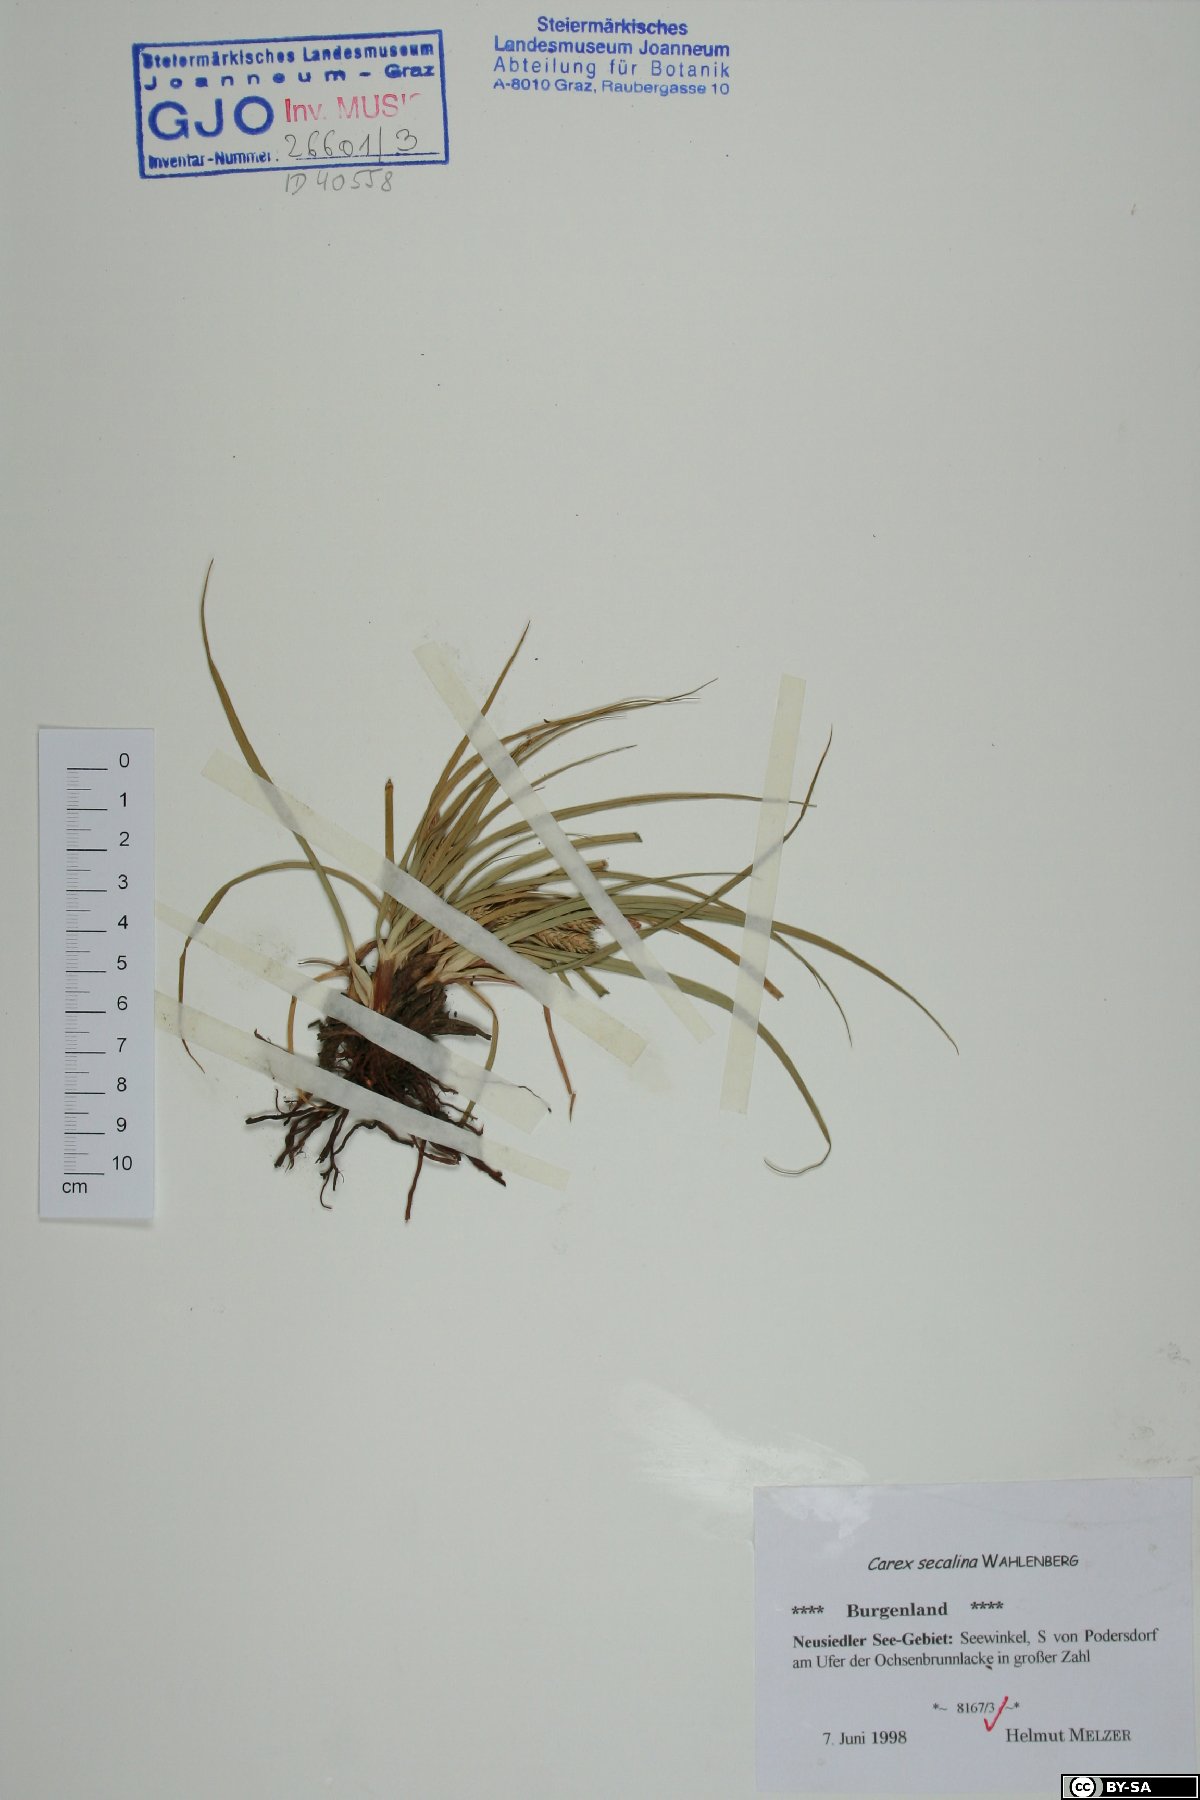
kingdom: Plantae
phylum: Tracheophyta
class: Liliopsida
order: Poales
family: Cyperaceae
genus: Carex
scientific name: Carex secalina
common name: Rye sedge
